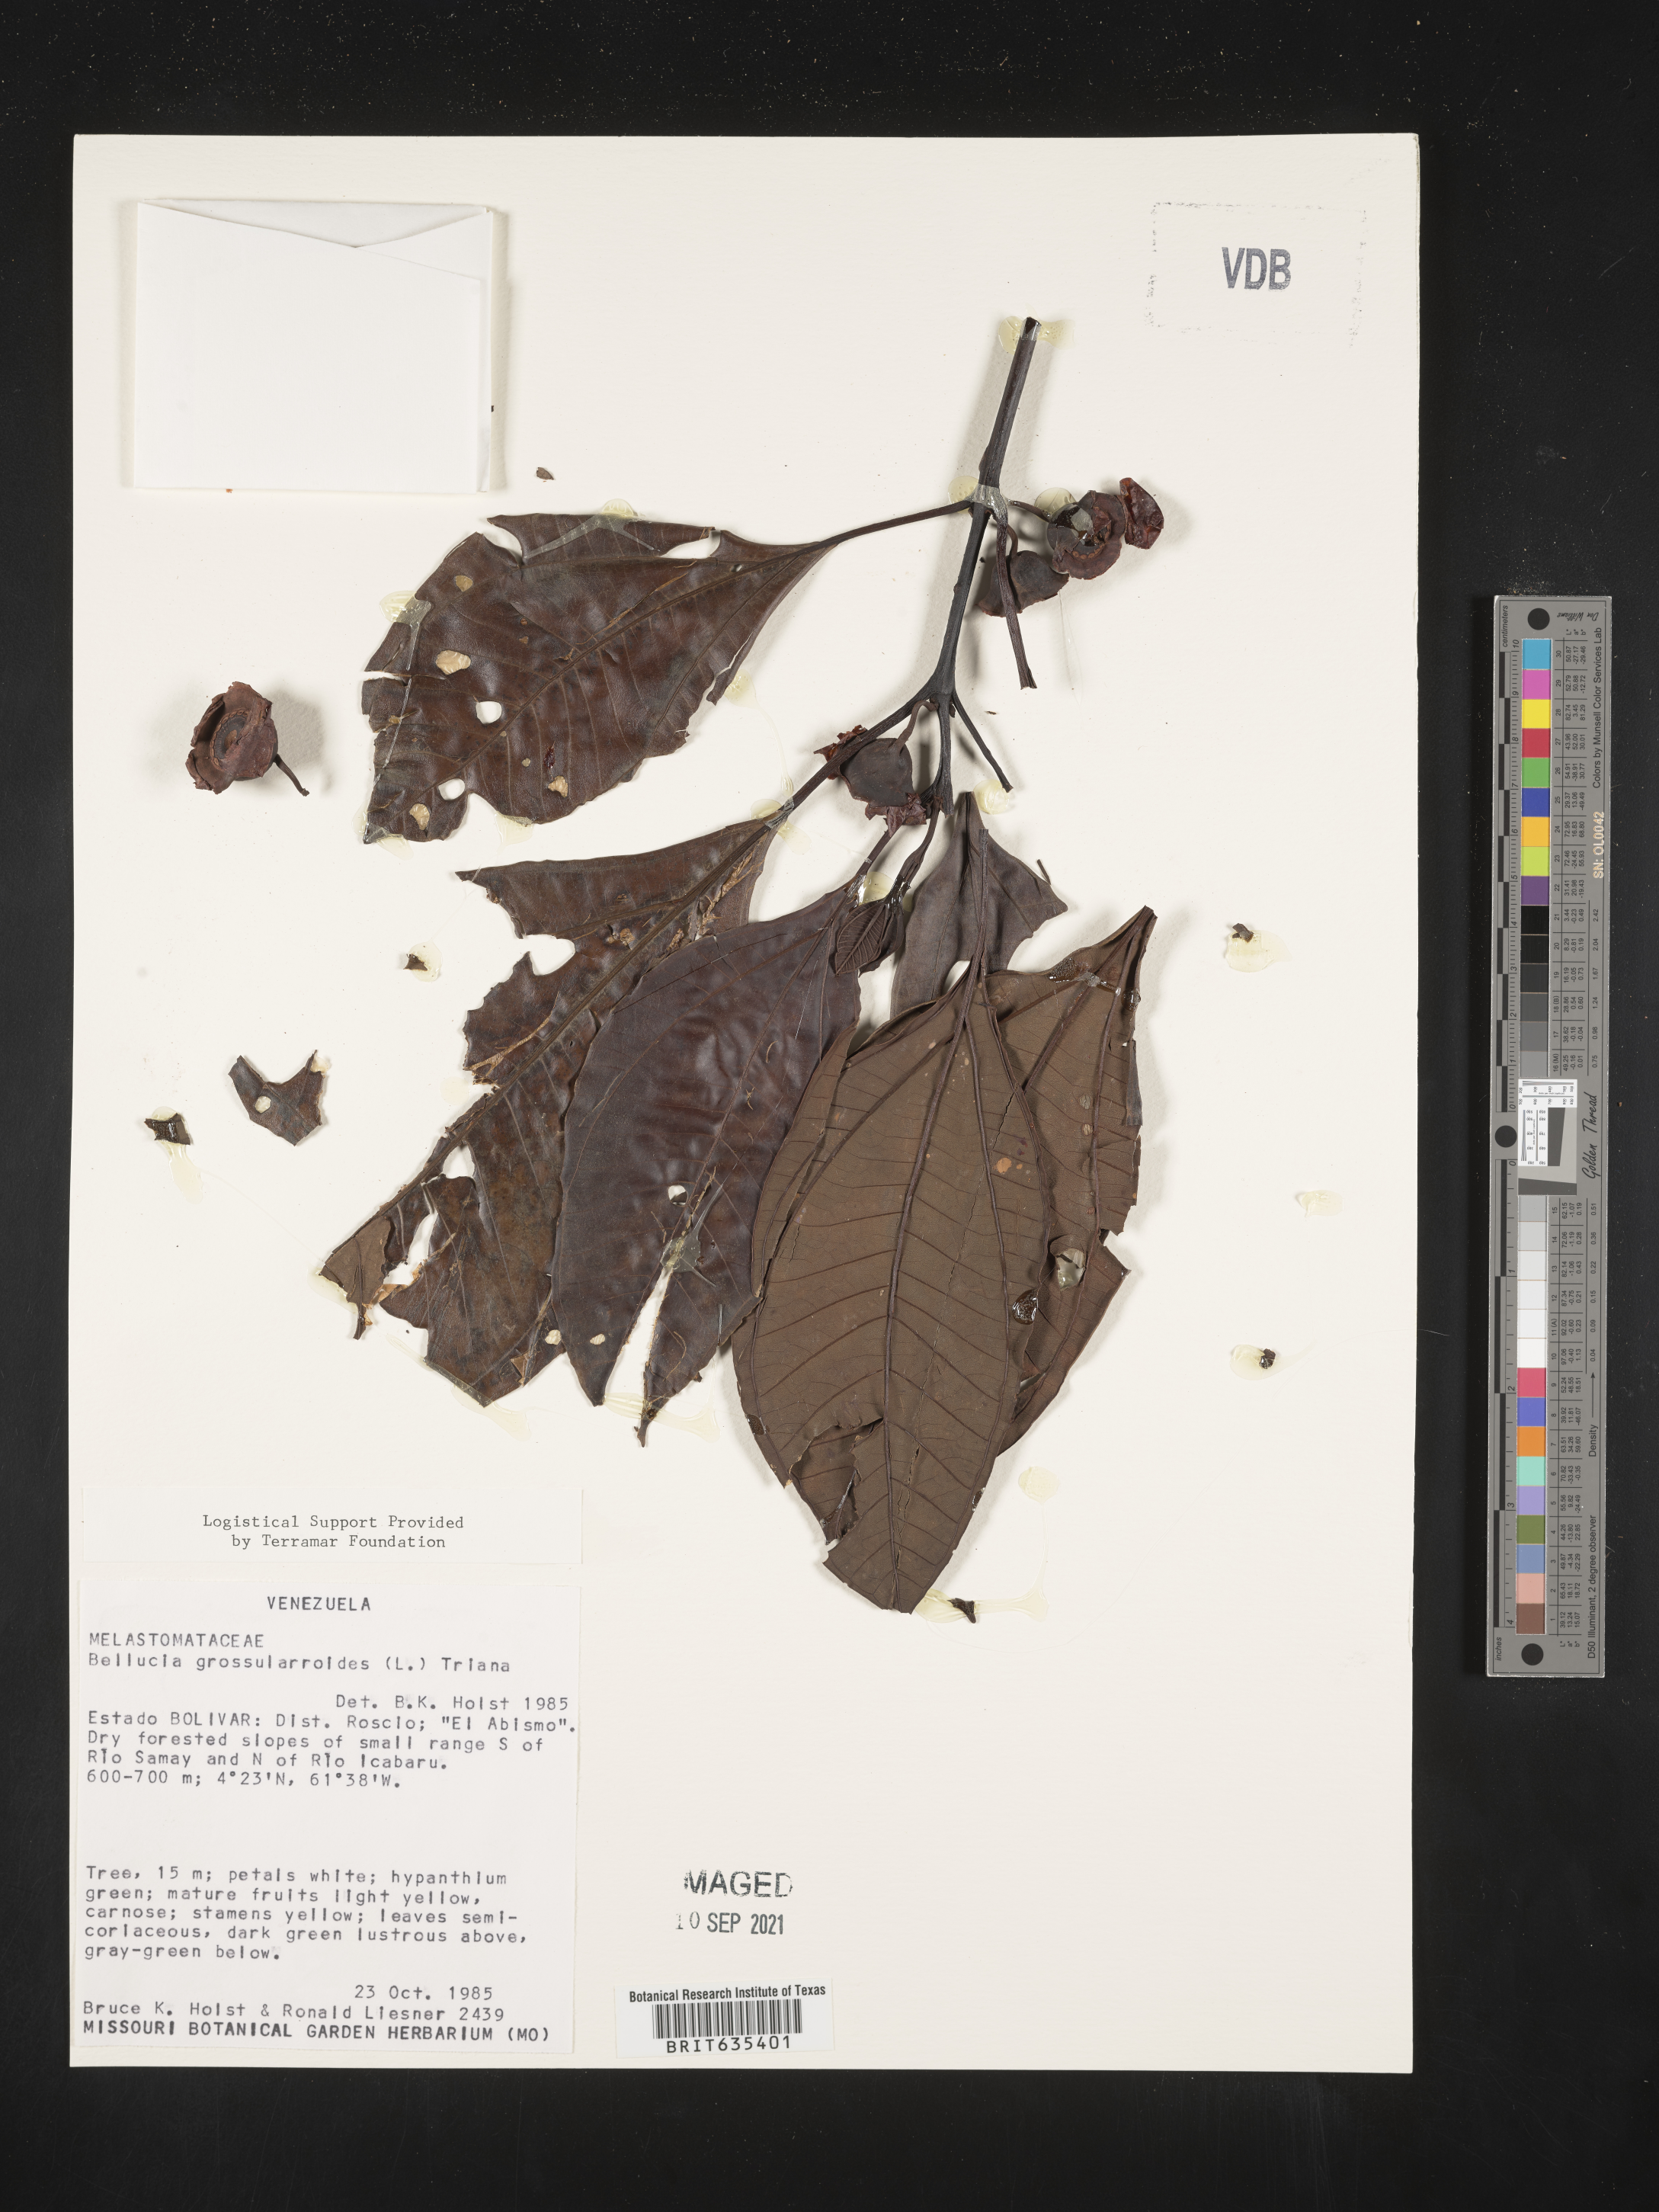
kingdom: Plantae
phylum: Tracheophyta
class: Magnoliopsida
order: Myrtales
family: Melastomataceae
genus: Bellucia
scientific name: Bellucia
